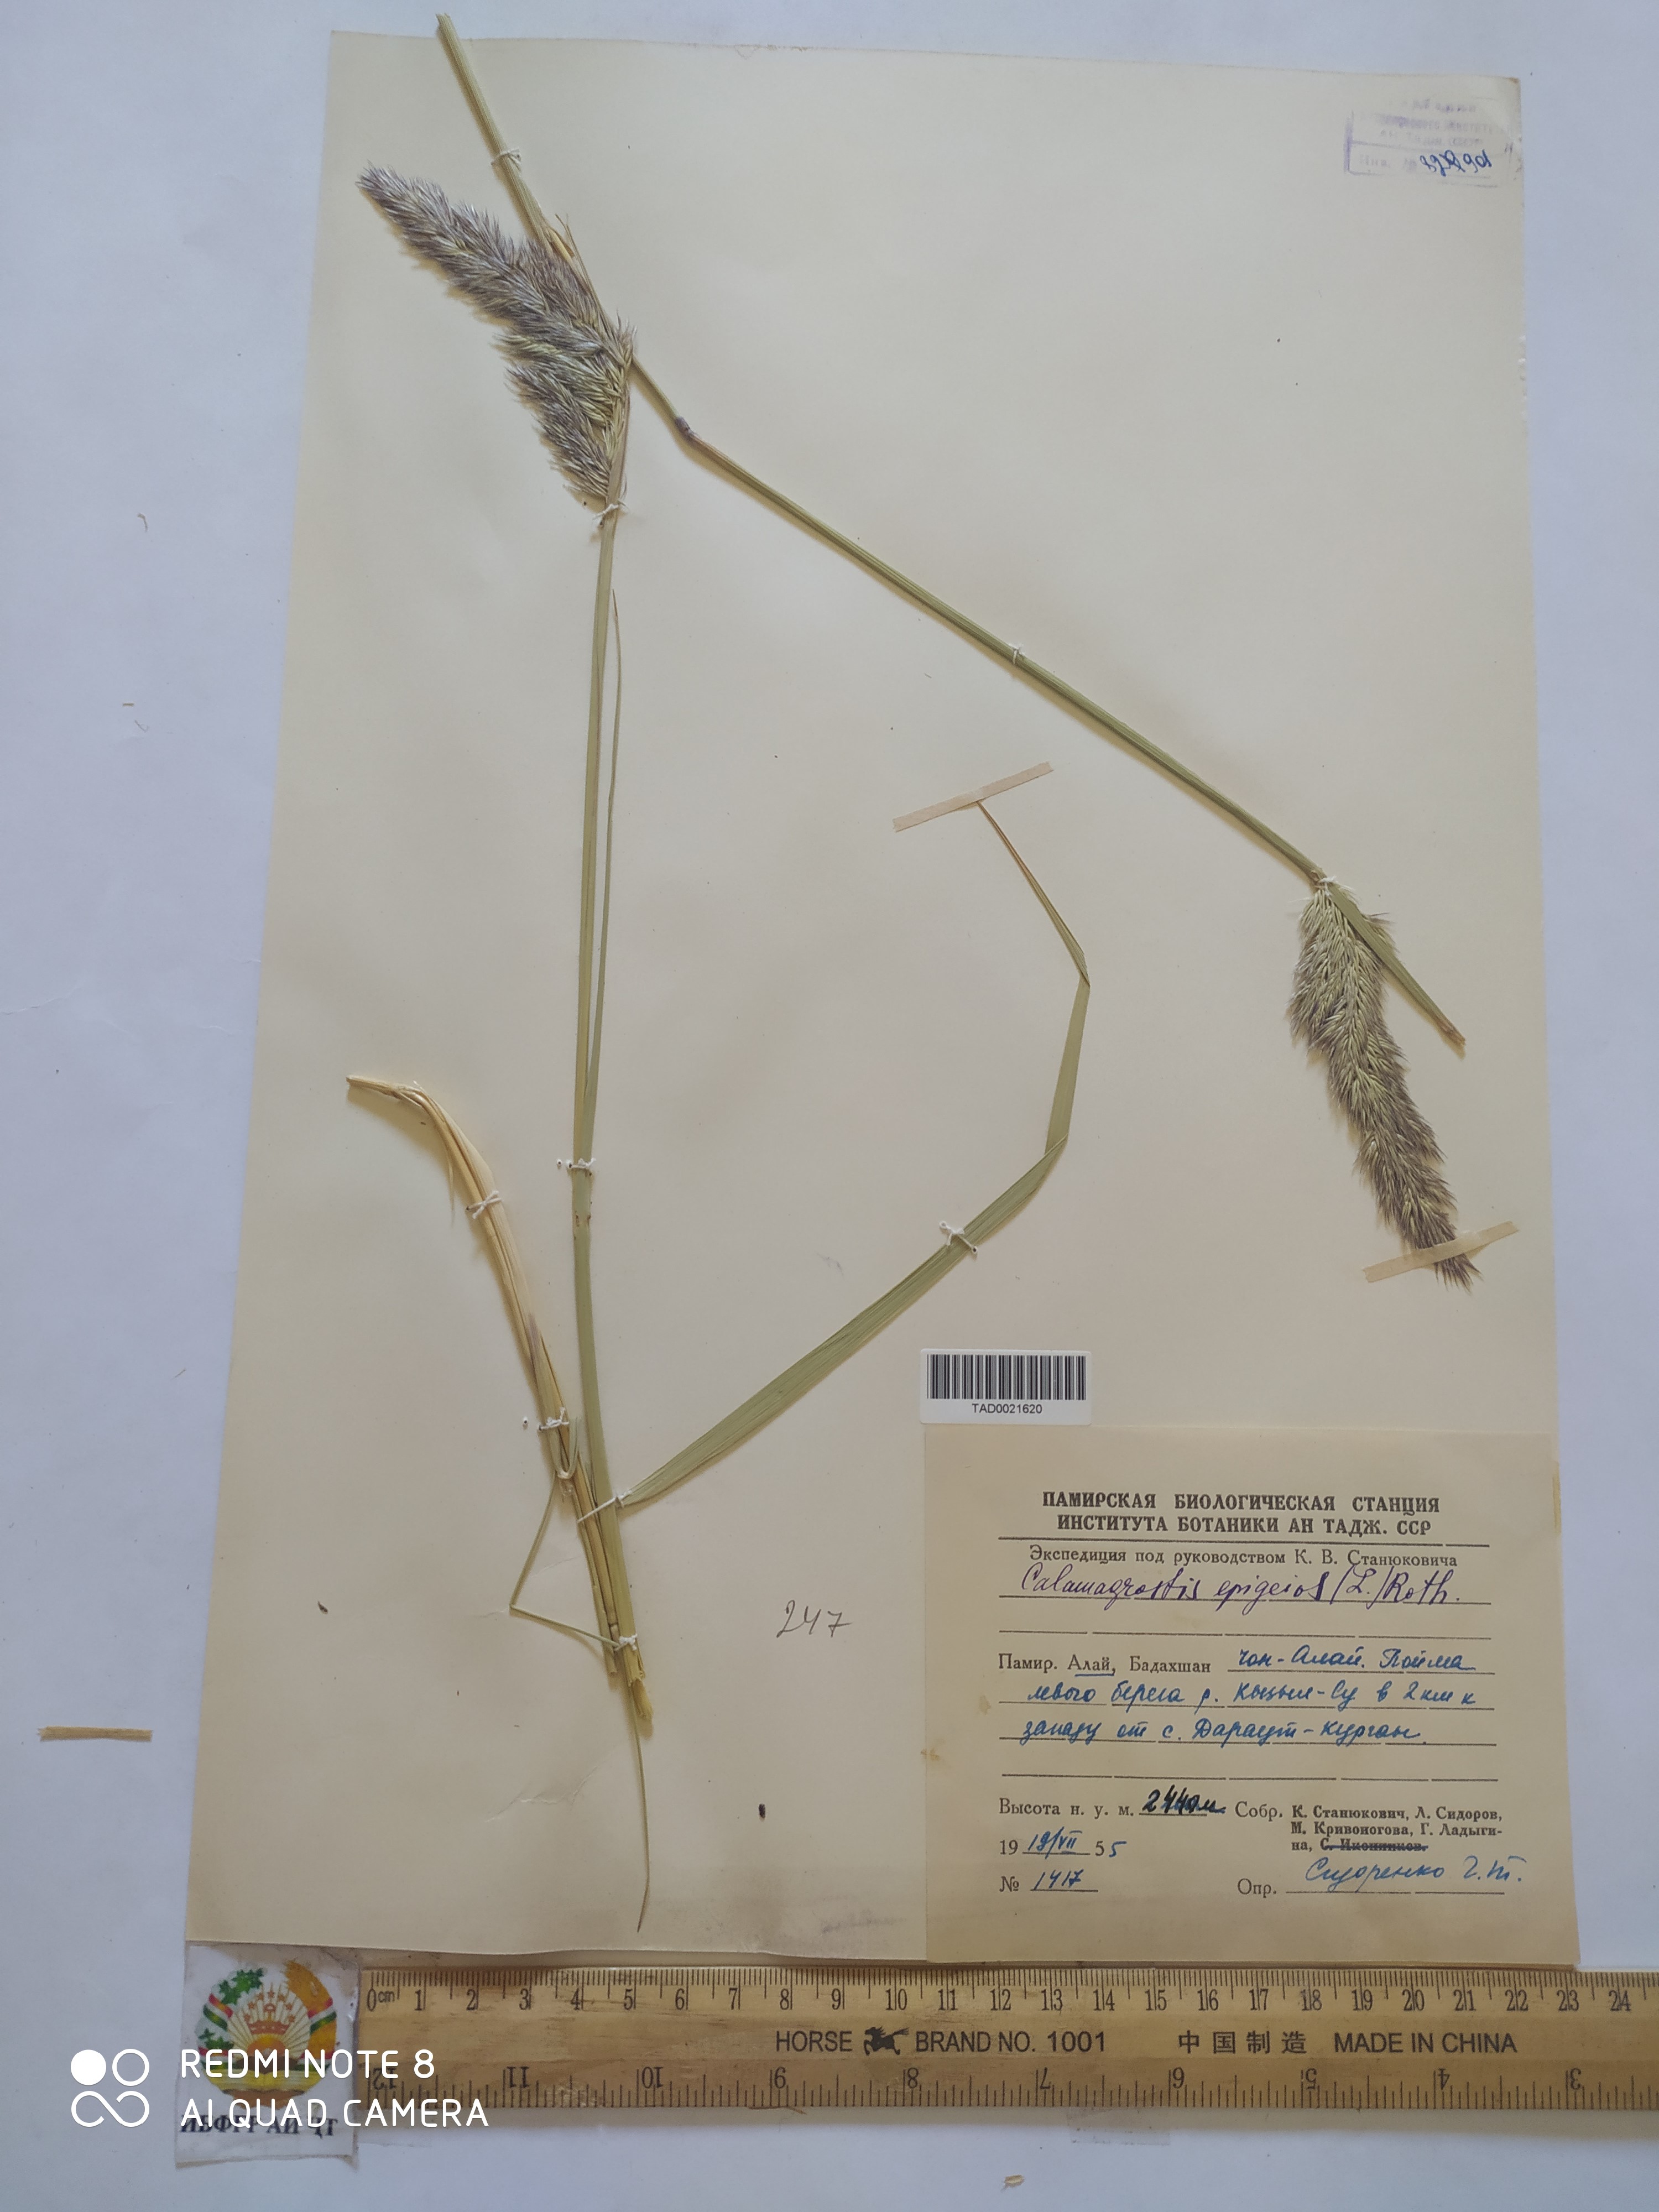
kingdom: Plantae
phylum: Tracheophyta
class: Liliopsida
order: Poales
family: Poaceae
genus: Calamagrostis
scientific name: Calamagrostis pseudophragmites
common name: Coastal small-reed
